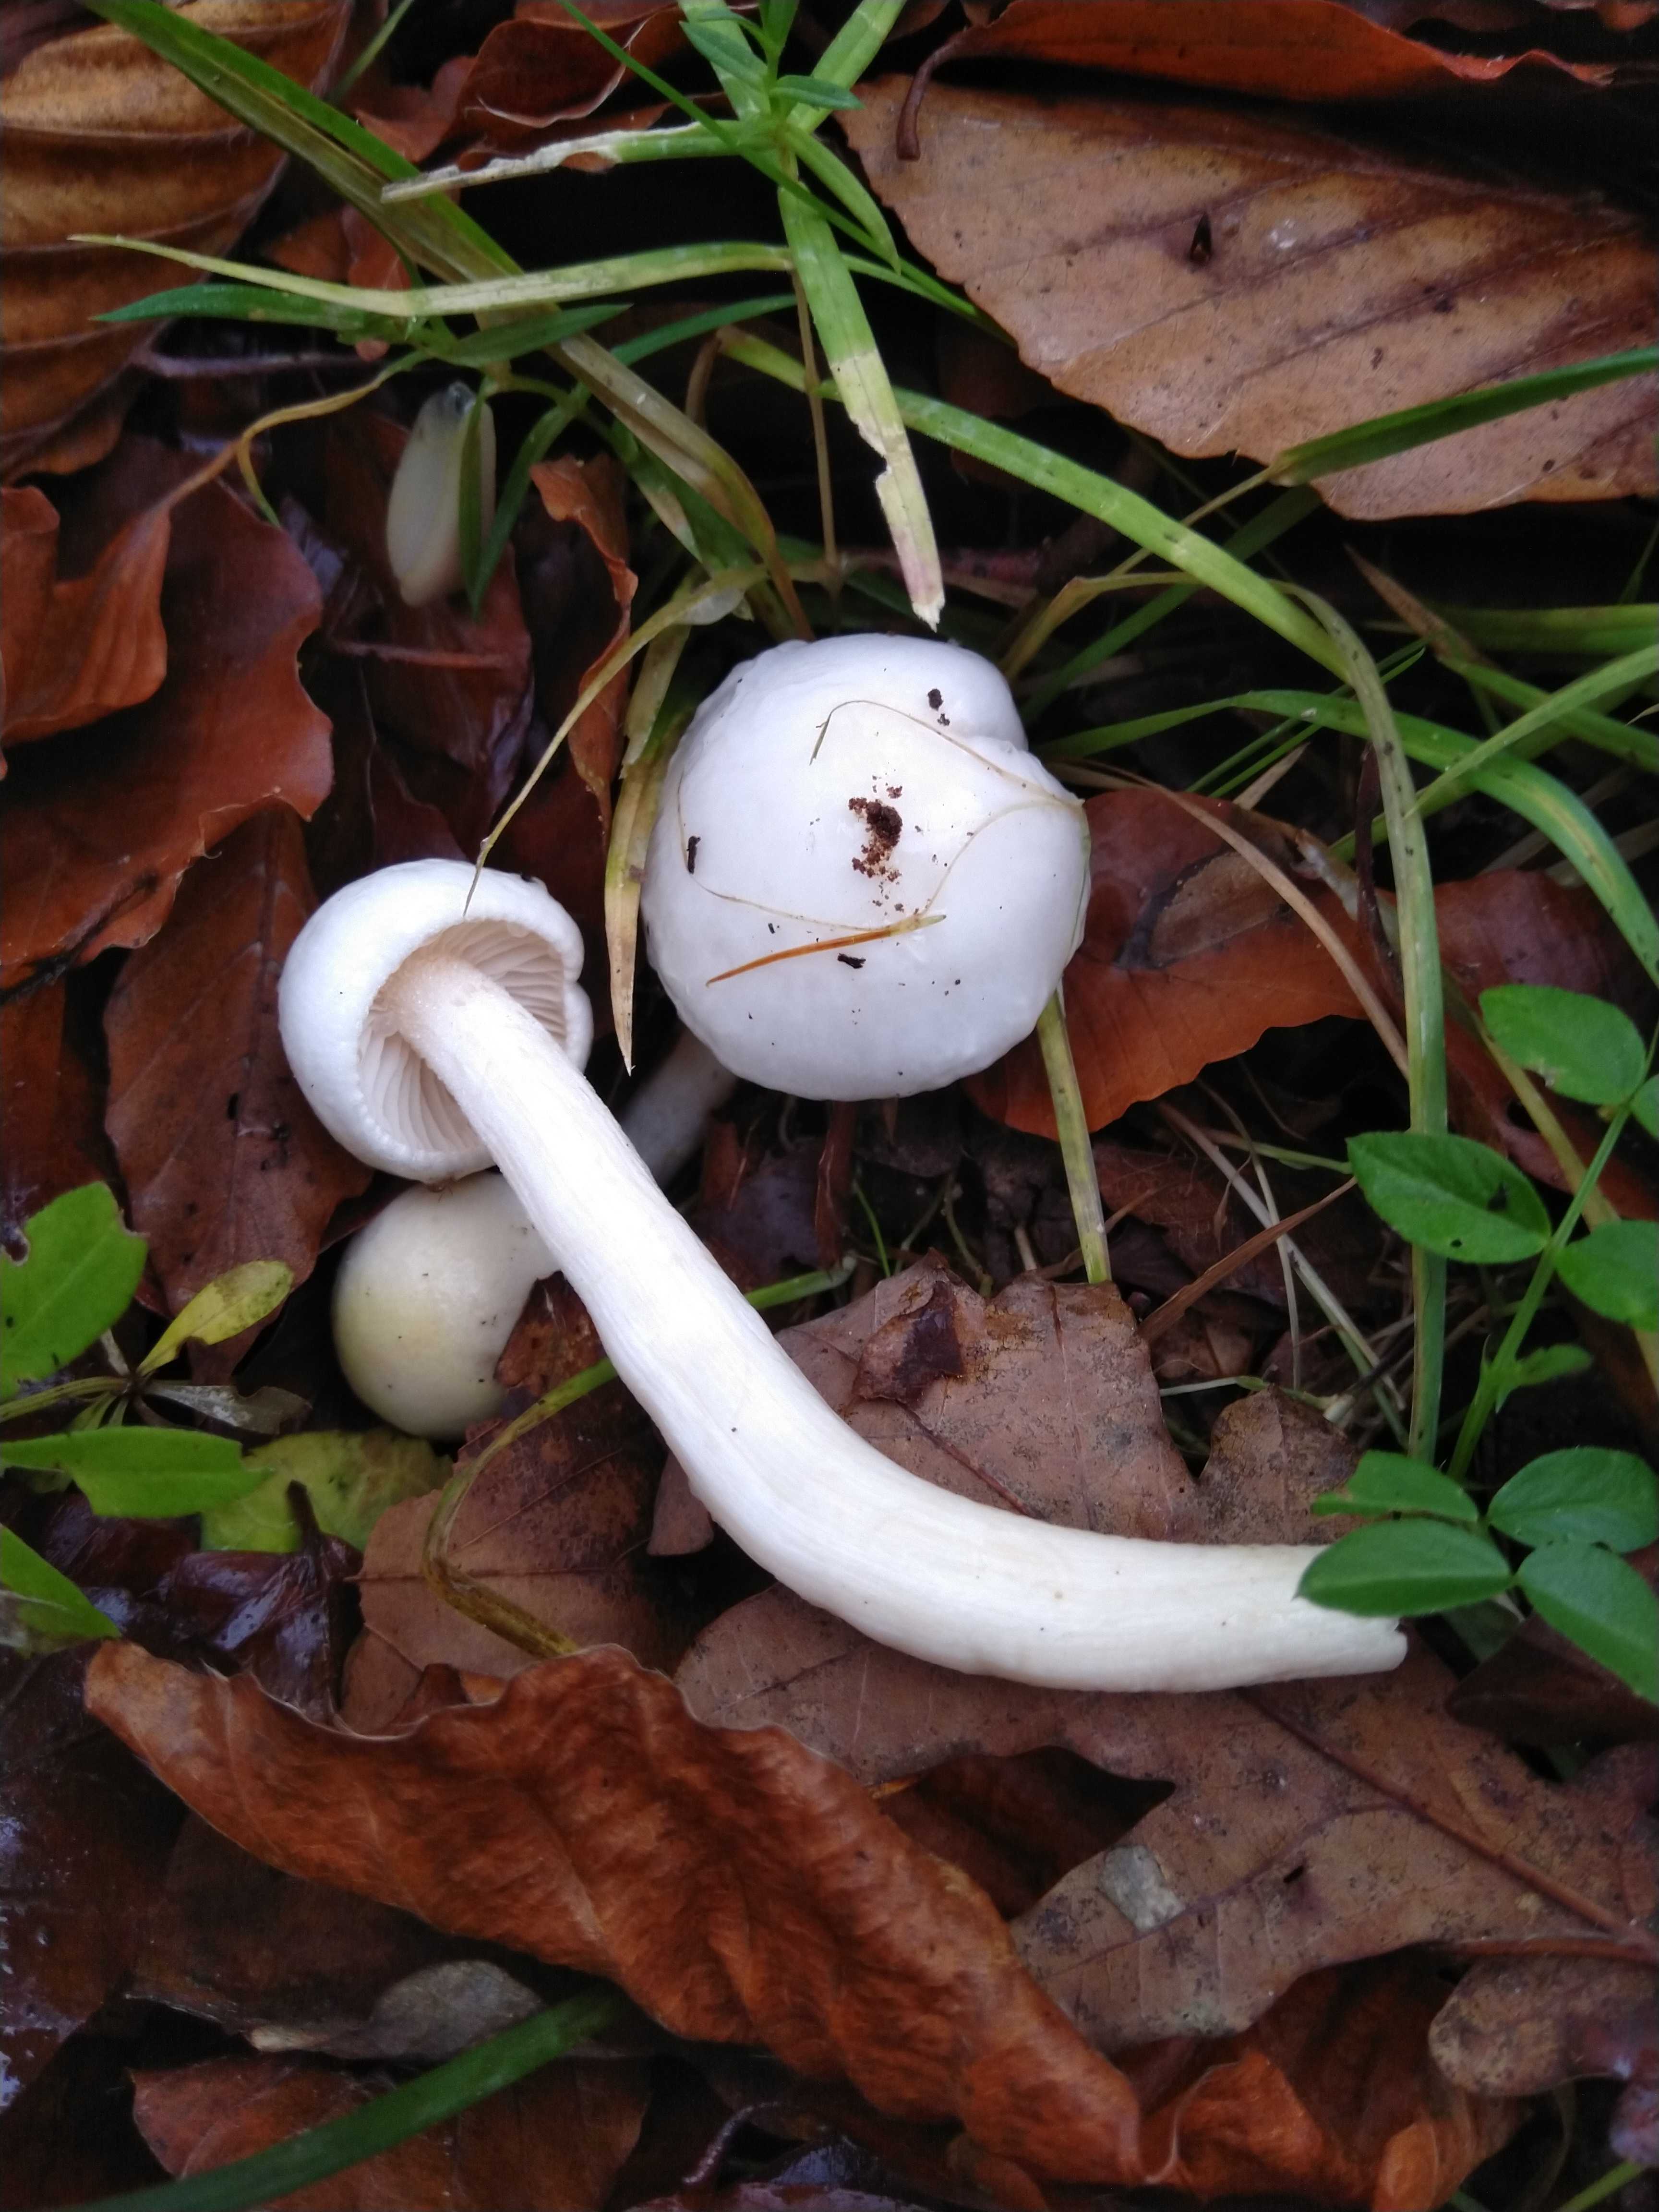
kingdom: Fungi
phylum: Basidiomycota
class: Agaricomycetes
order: Agaricales
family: Hygrophoraceae
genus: Hygrophorus
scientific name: Hygrophorus eburneus
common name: elfenbens-sneglehat
